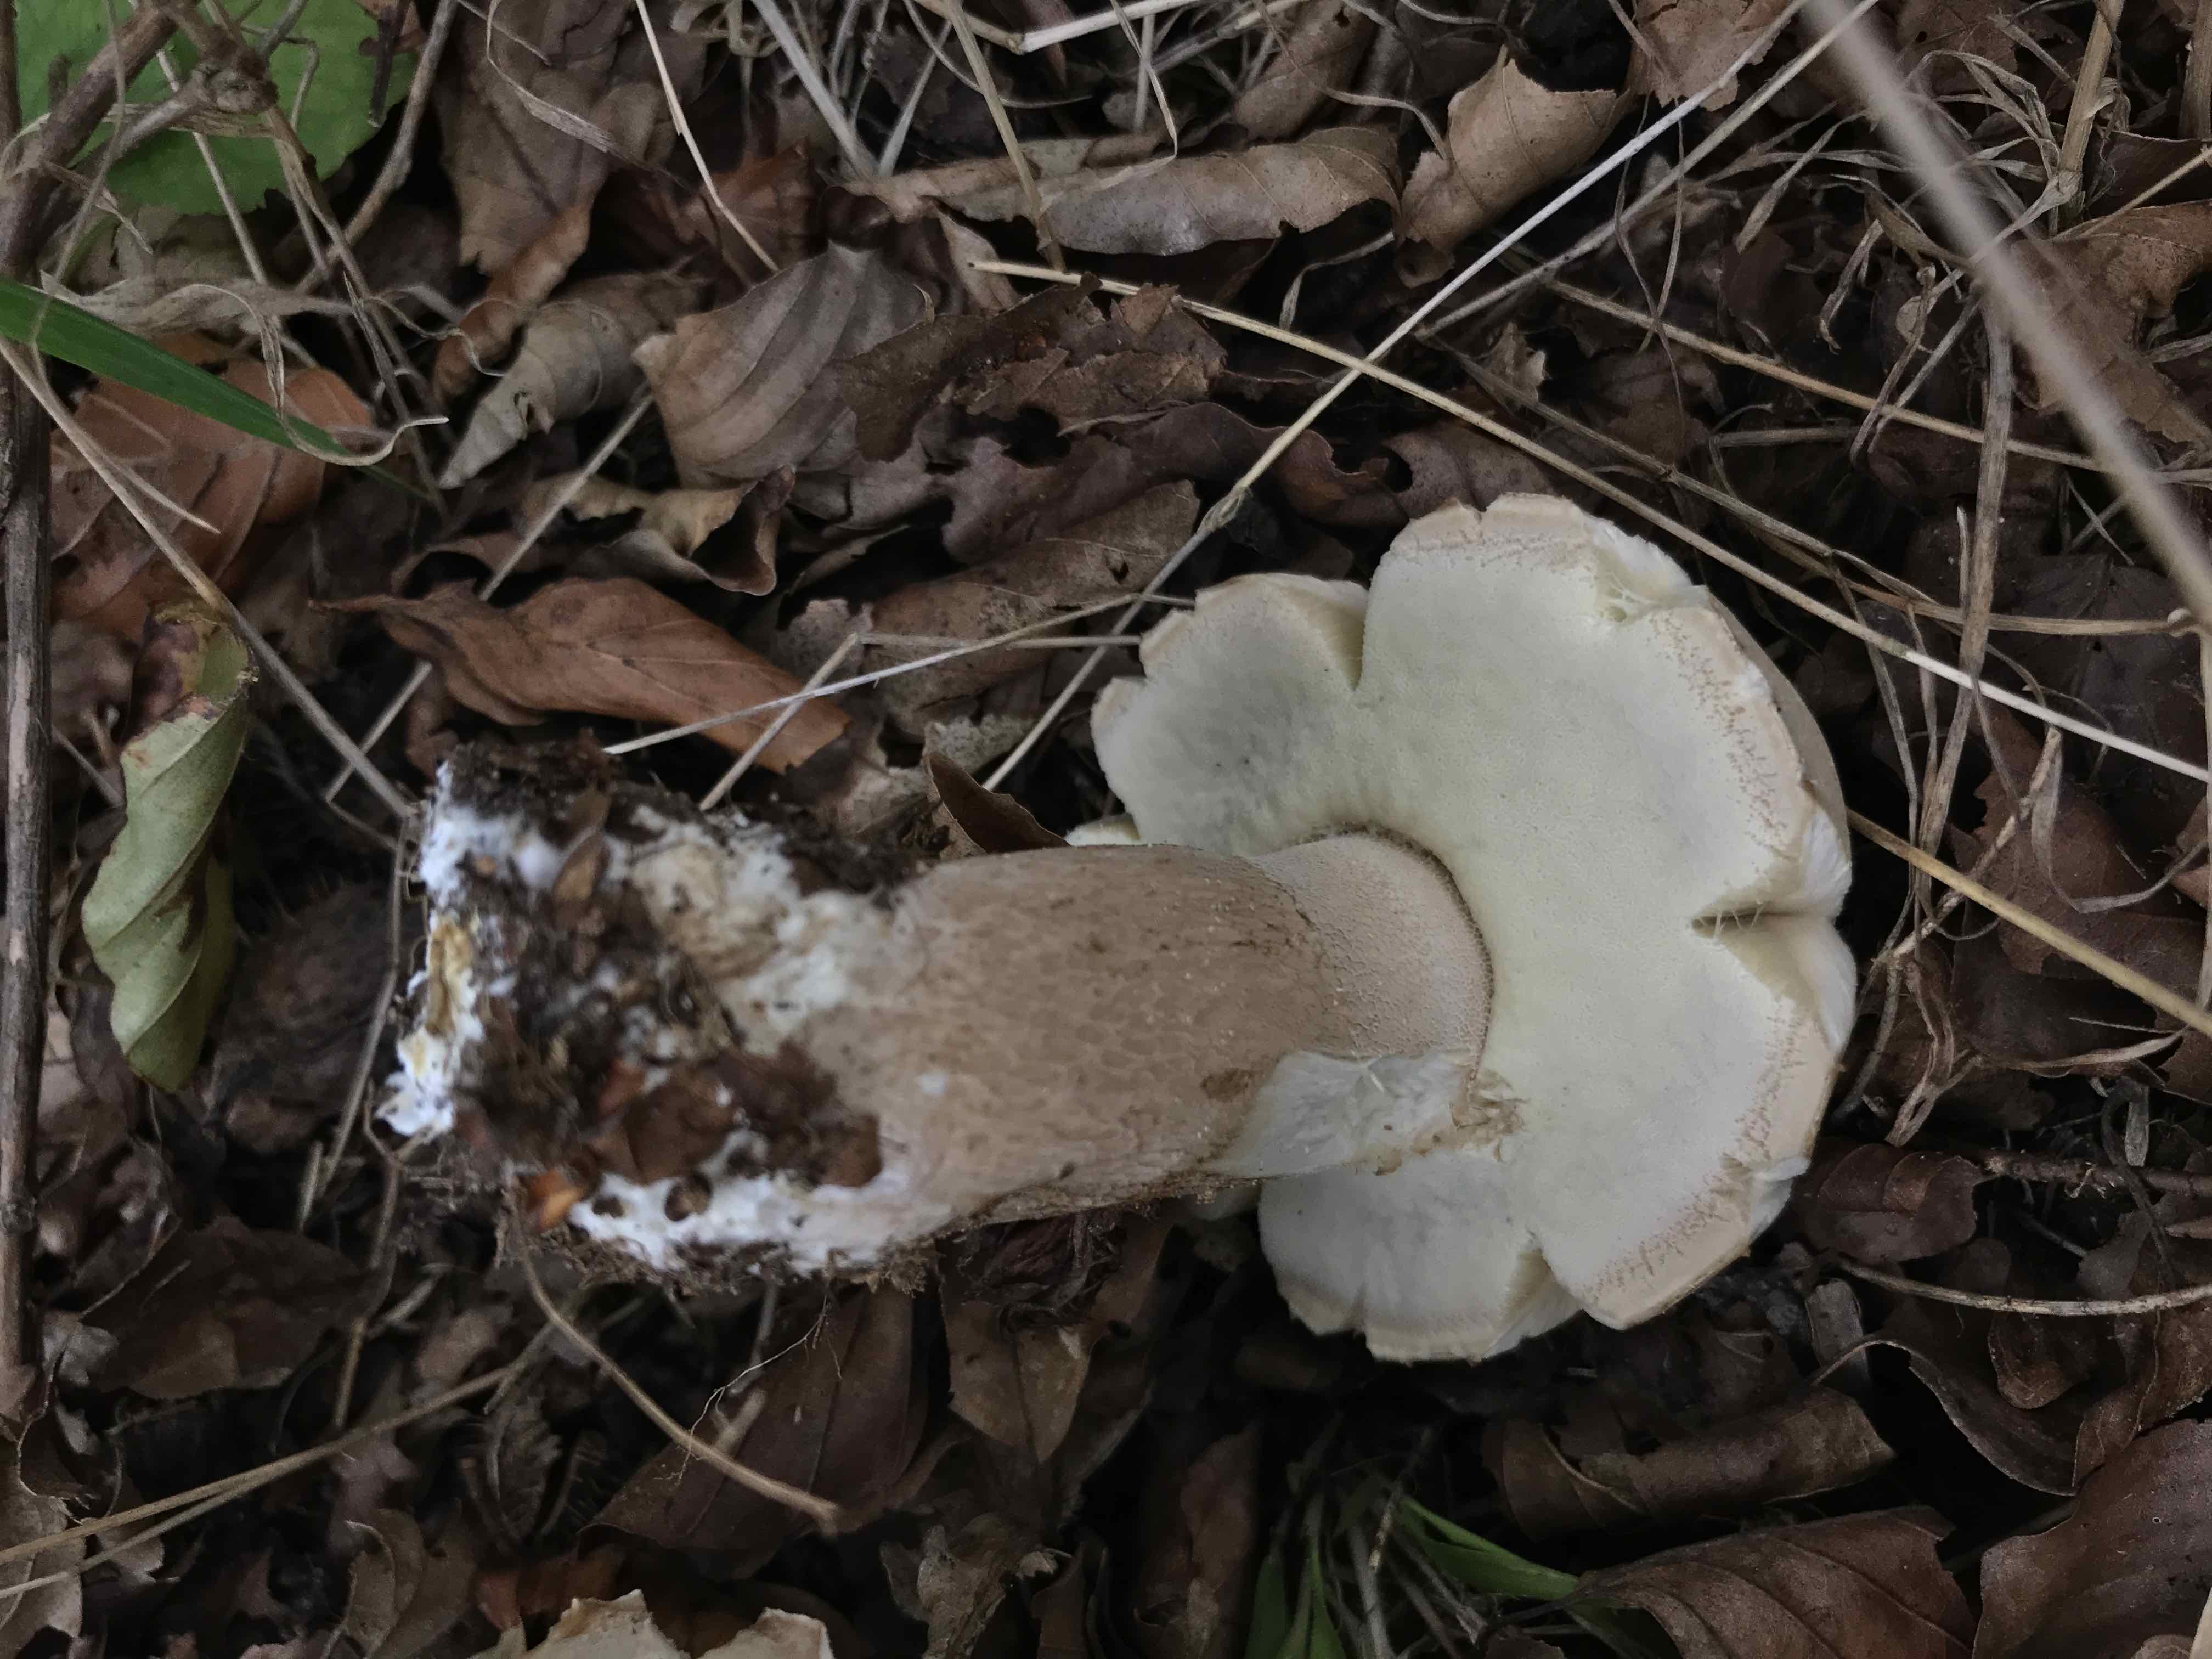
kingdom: Fungi
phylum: Basidiomycota
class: Agaricomycetes
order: Boletales
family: Boletaceae
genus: Boletus
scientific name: Boletus reticulatus
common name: sommer-rørhat
